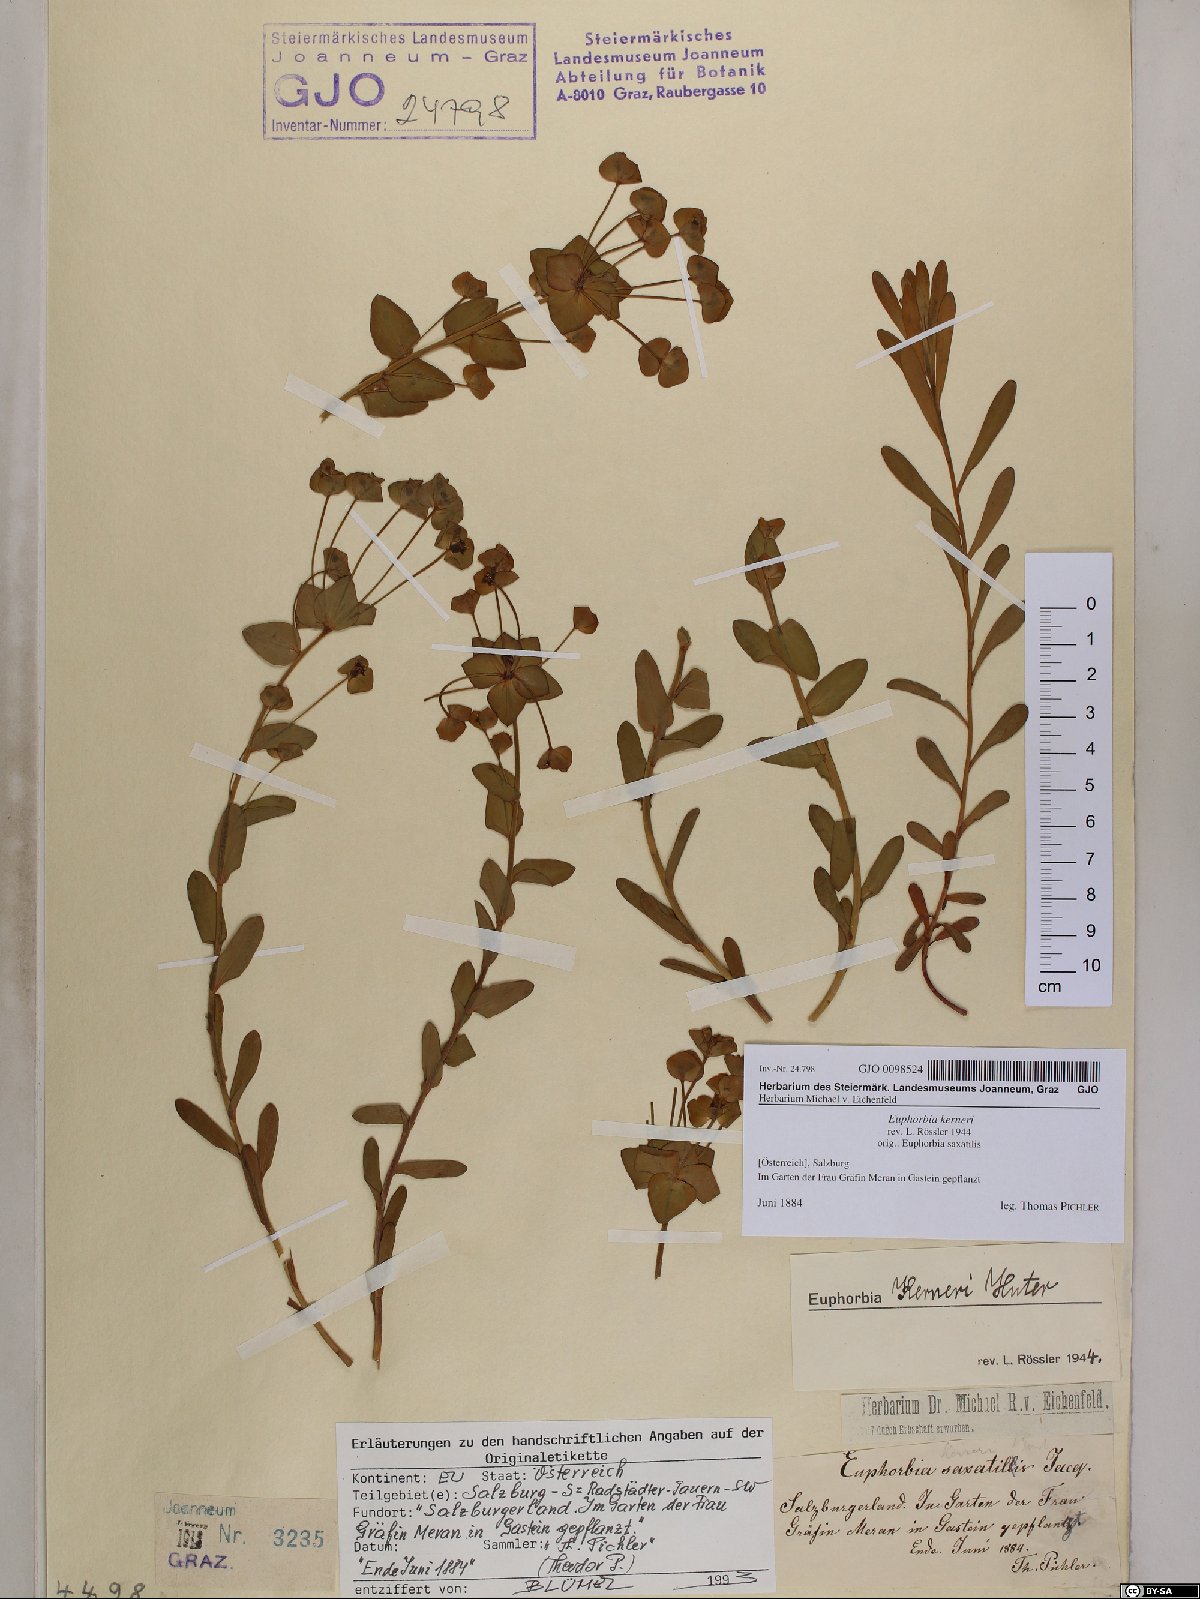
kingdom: Plantae
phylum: Tracheophyta
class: Magnoliopsida
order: Malpighiales
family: Euphorbiaceae
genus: Euphorbia
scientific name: Euphorbia kerneri
